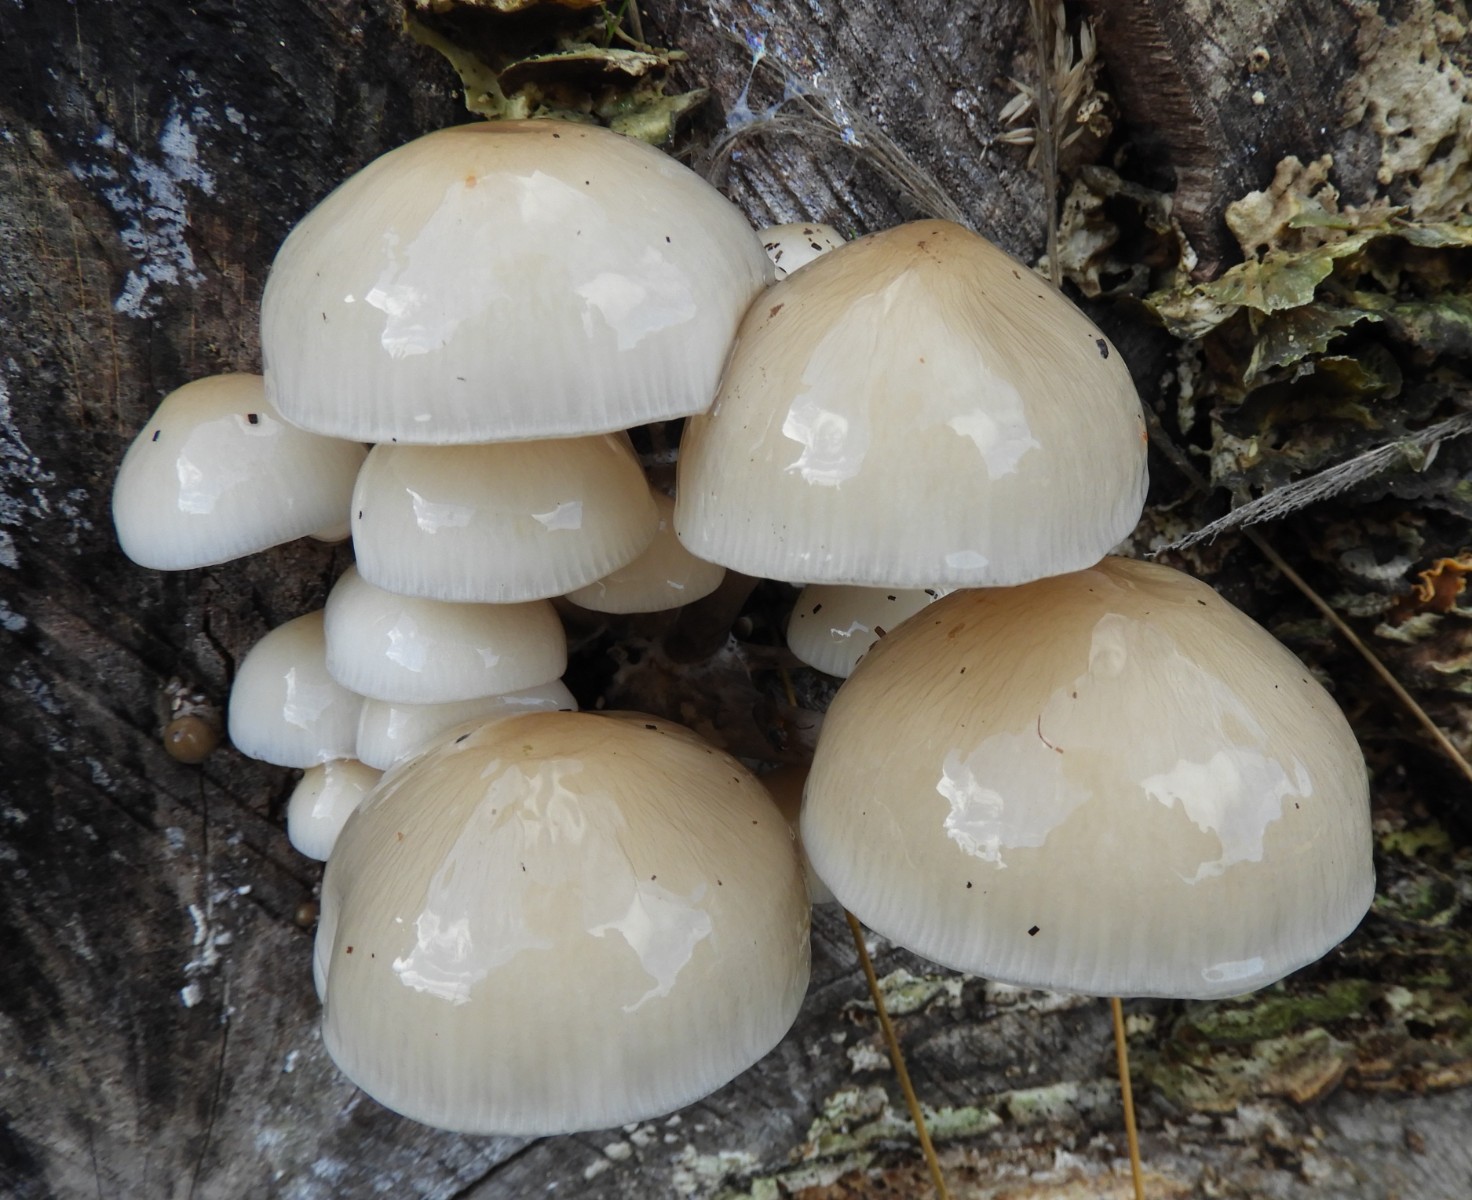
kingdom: Fungi
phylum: Basidiomycota
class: Agaricomycetes
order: Agaricales
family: Physalacriaceae
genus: Mucidula
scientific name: Mucidula mucida
